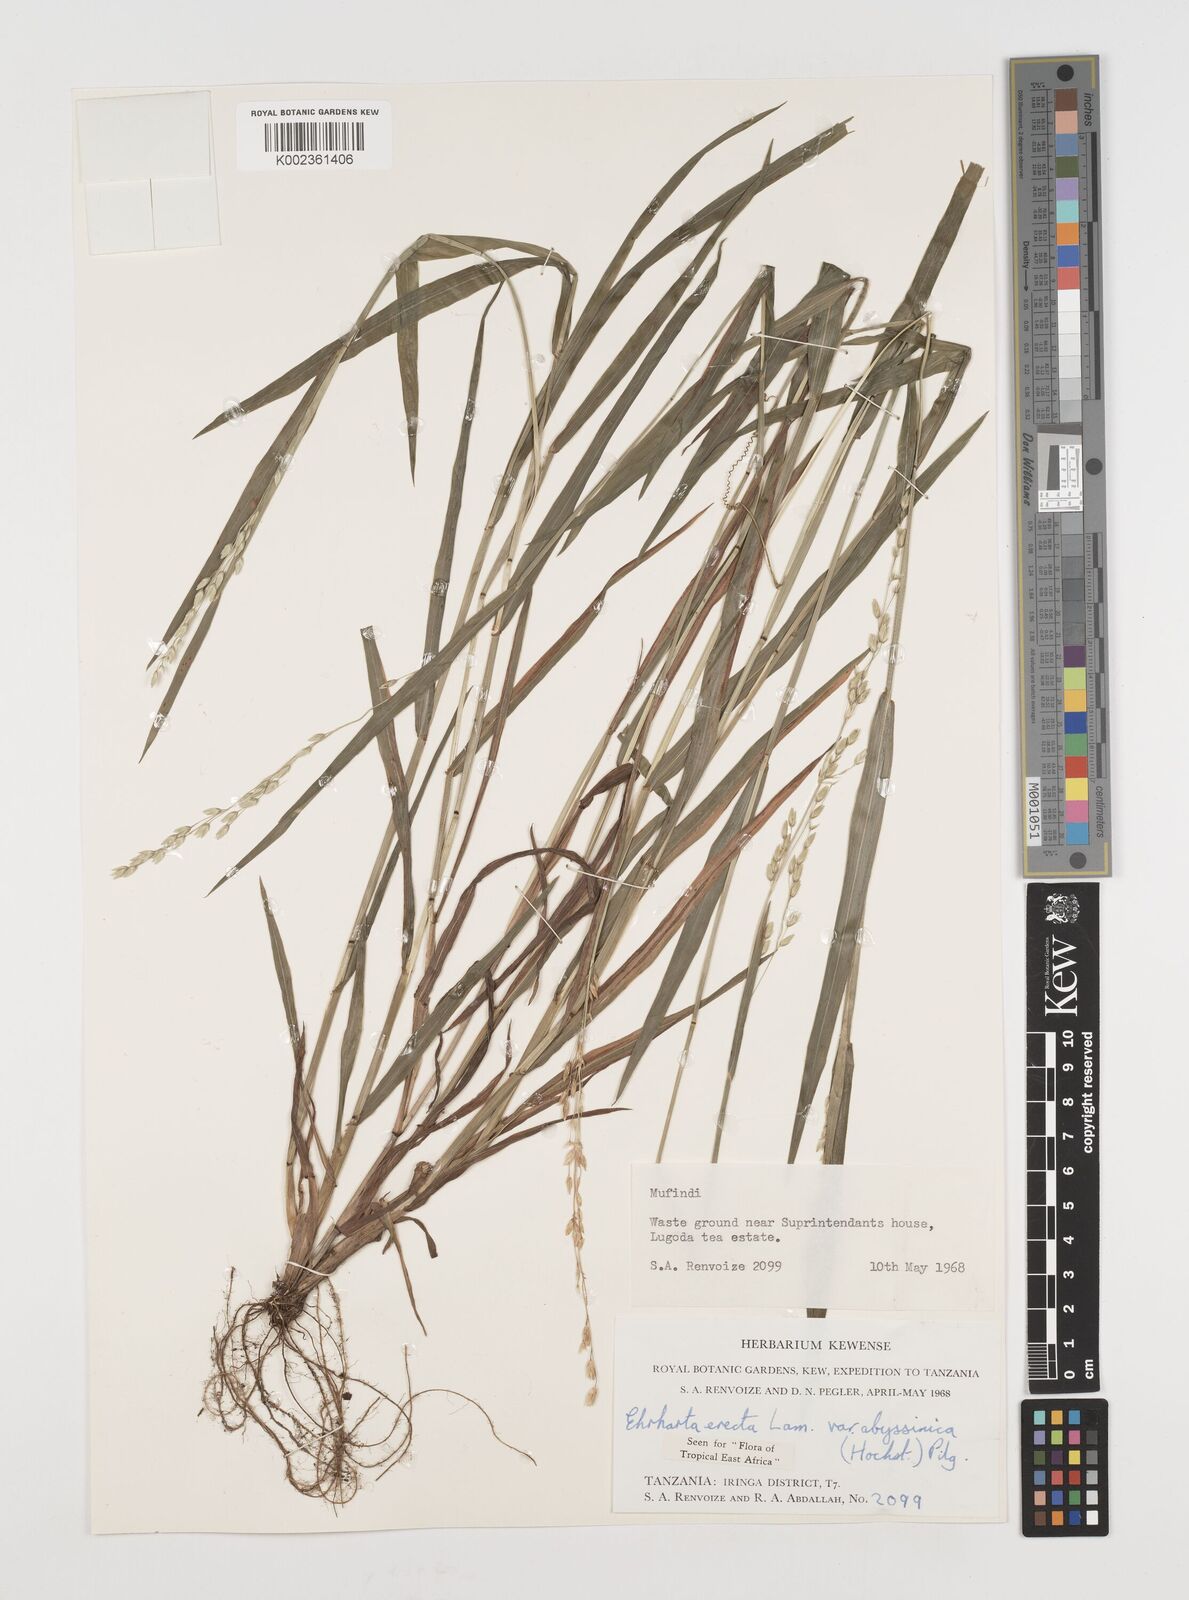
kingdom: Plantae
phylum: Tracheophyta
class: Liliopsida
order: Poales
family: Poaceae
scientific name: Poaceae
